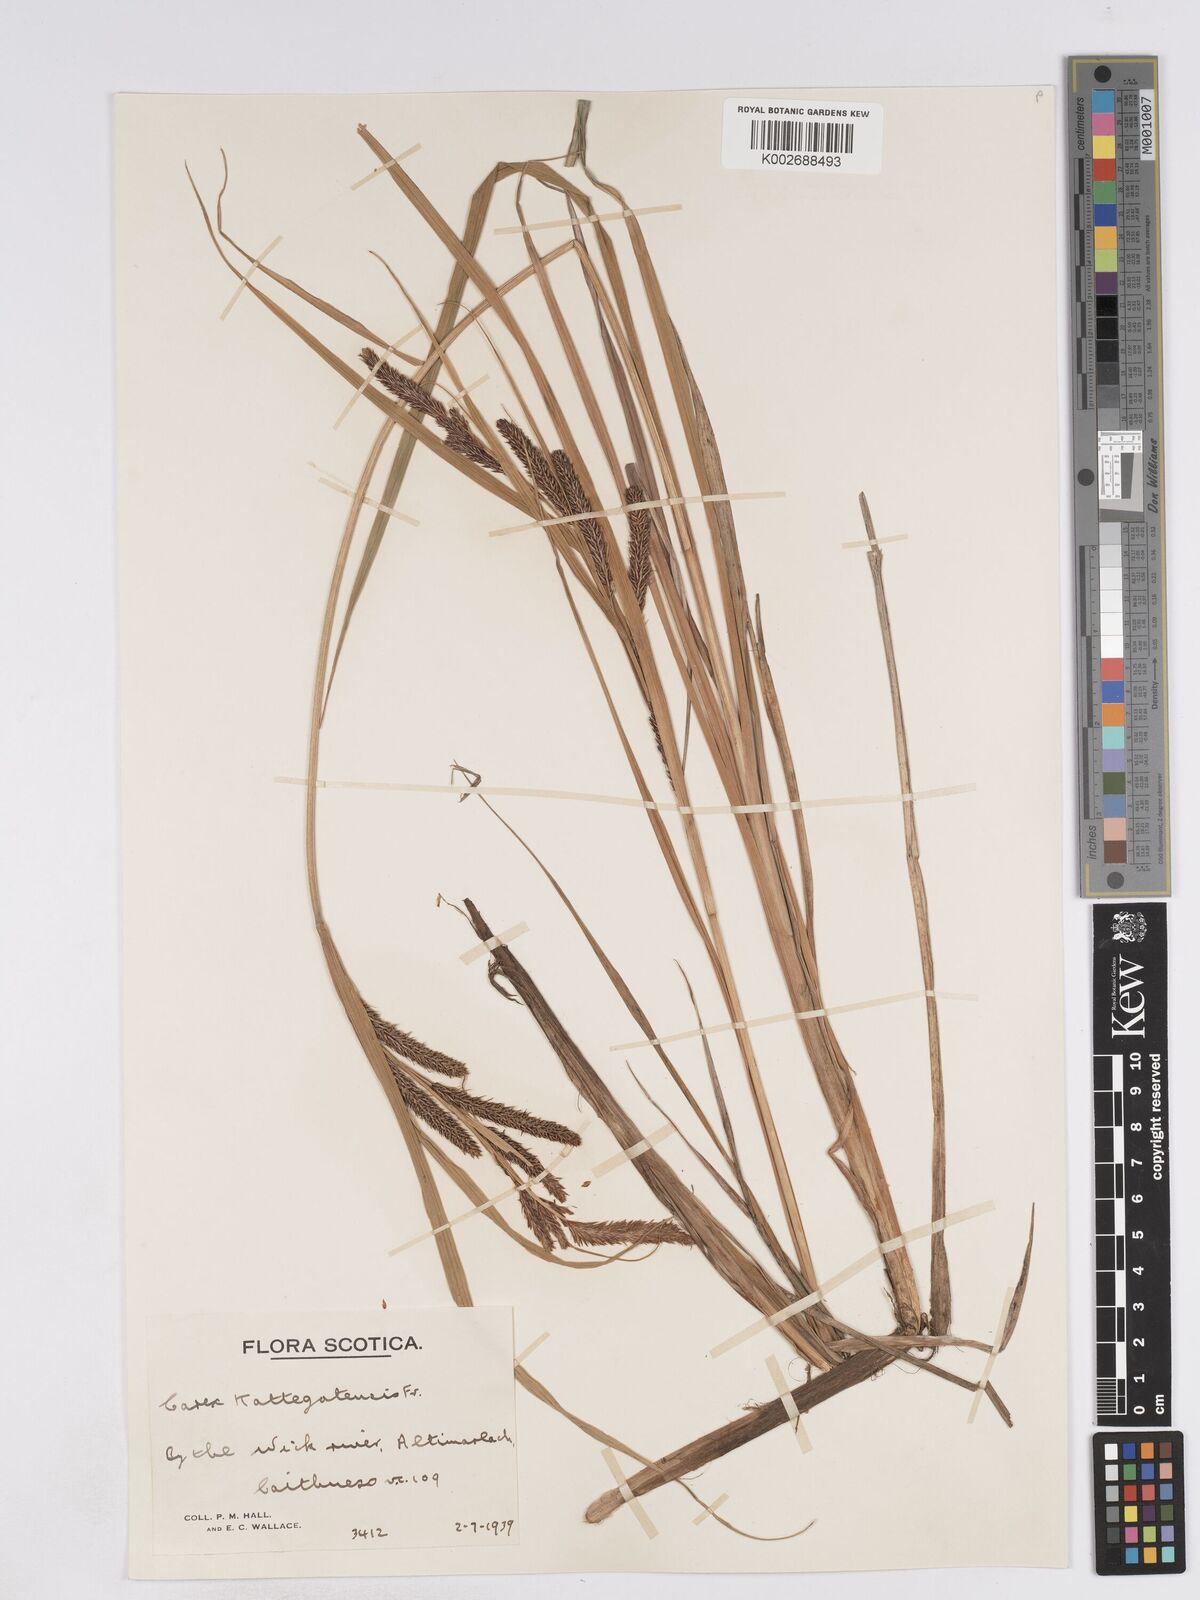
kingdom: Plantae
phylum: Tracheophyta
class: Liliopsida
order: Poales
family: Cyperaceae
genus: Carex
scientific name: Carex recta
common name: Estuarine sedge
